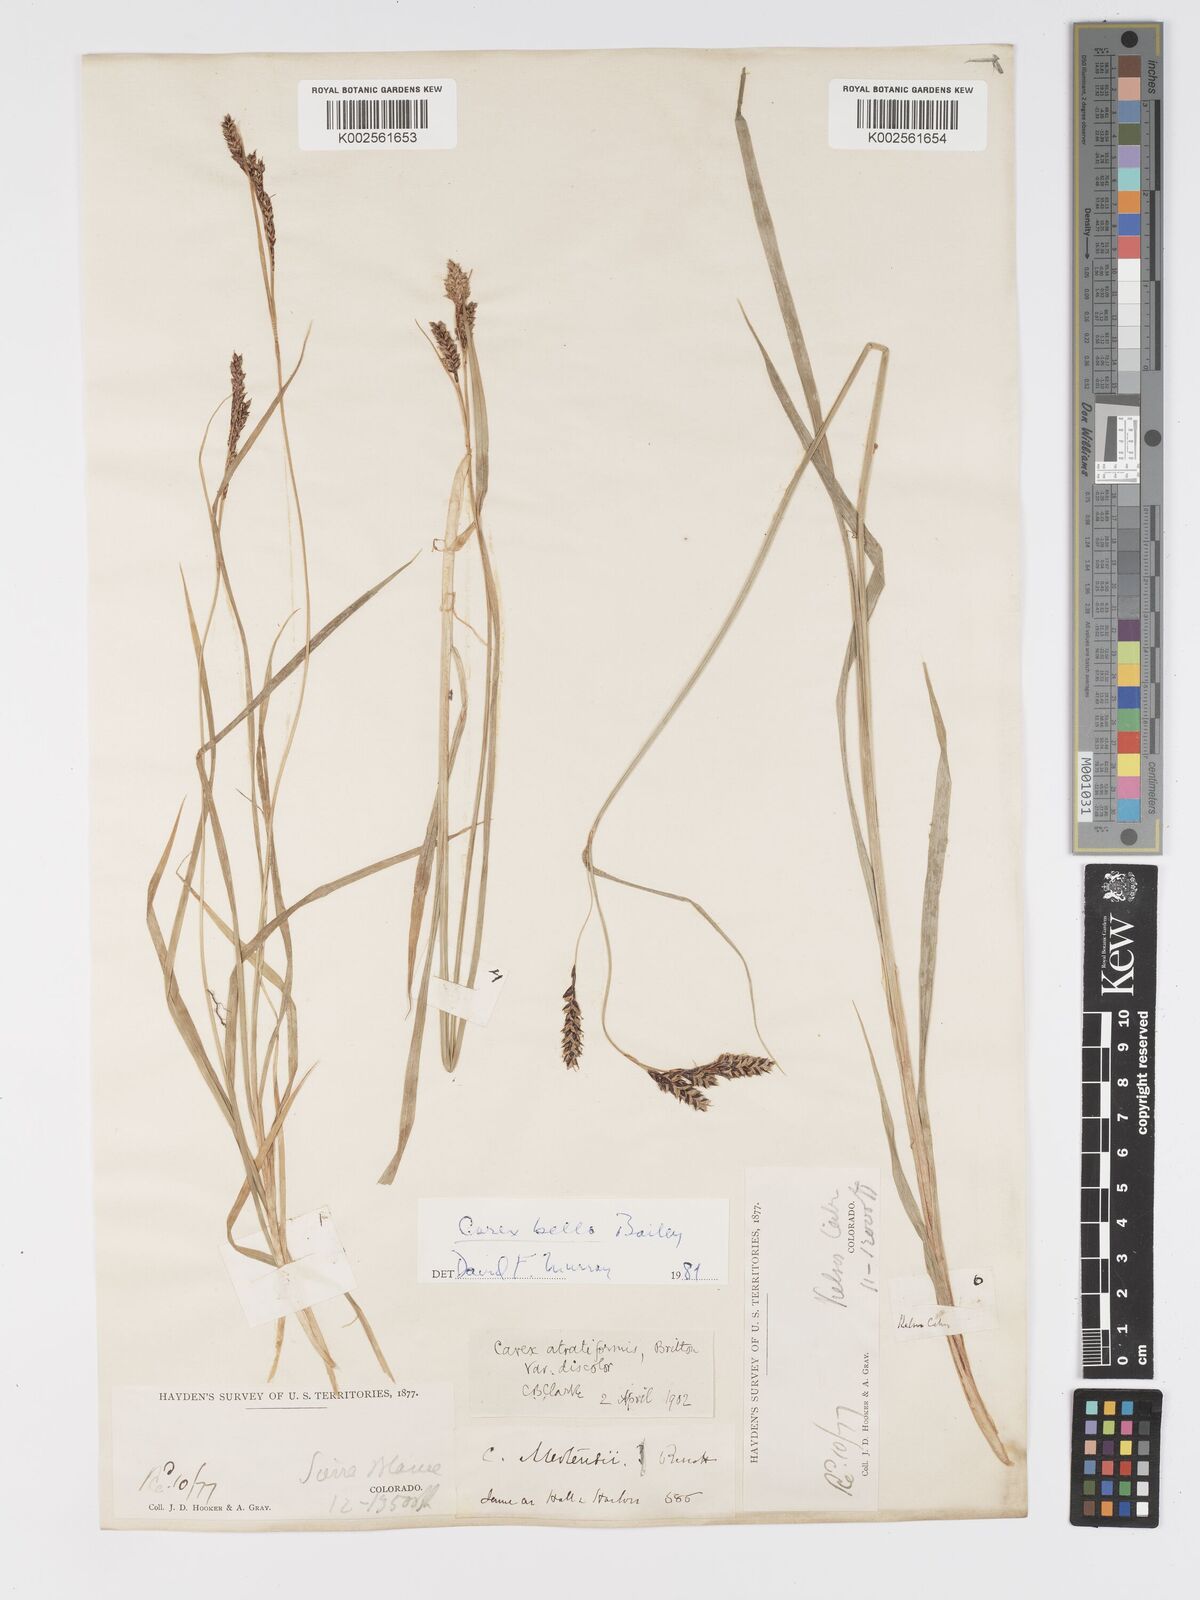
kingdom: Plantae
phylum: Tracheophyta
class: Liliopsida
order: Poales
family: Cyperaceae
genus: Carex
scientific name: Carex bella
